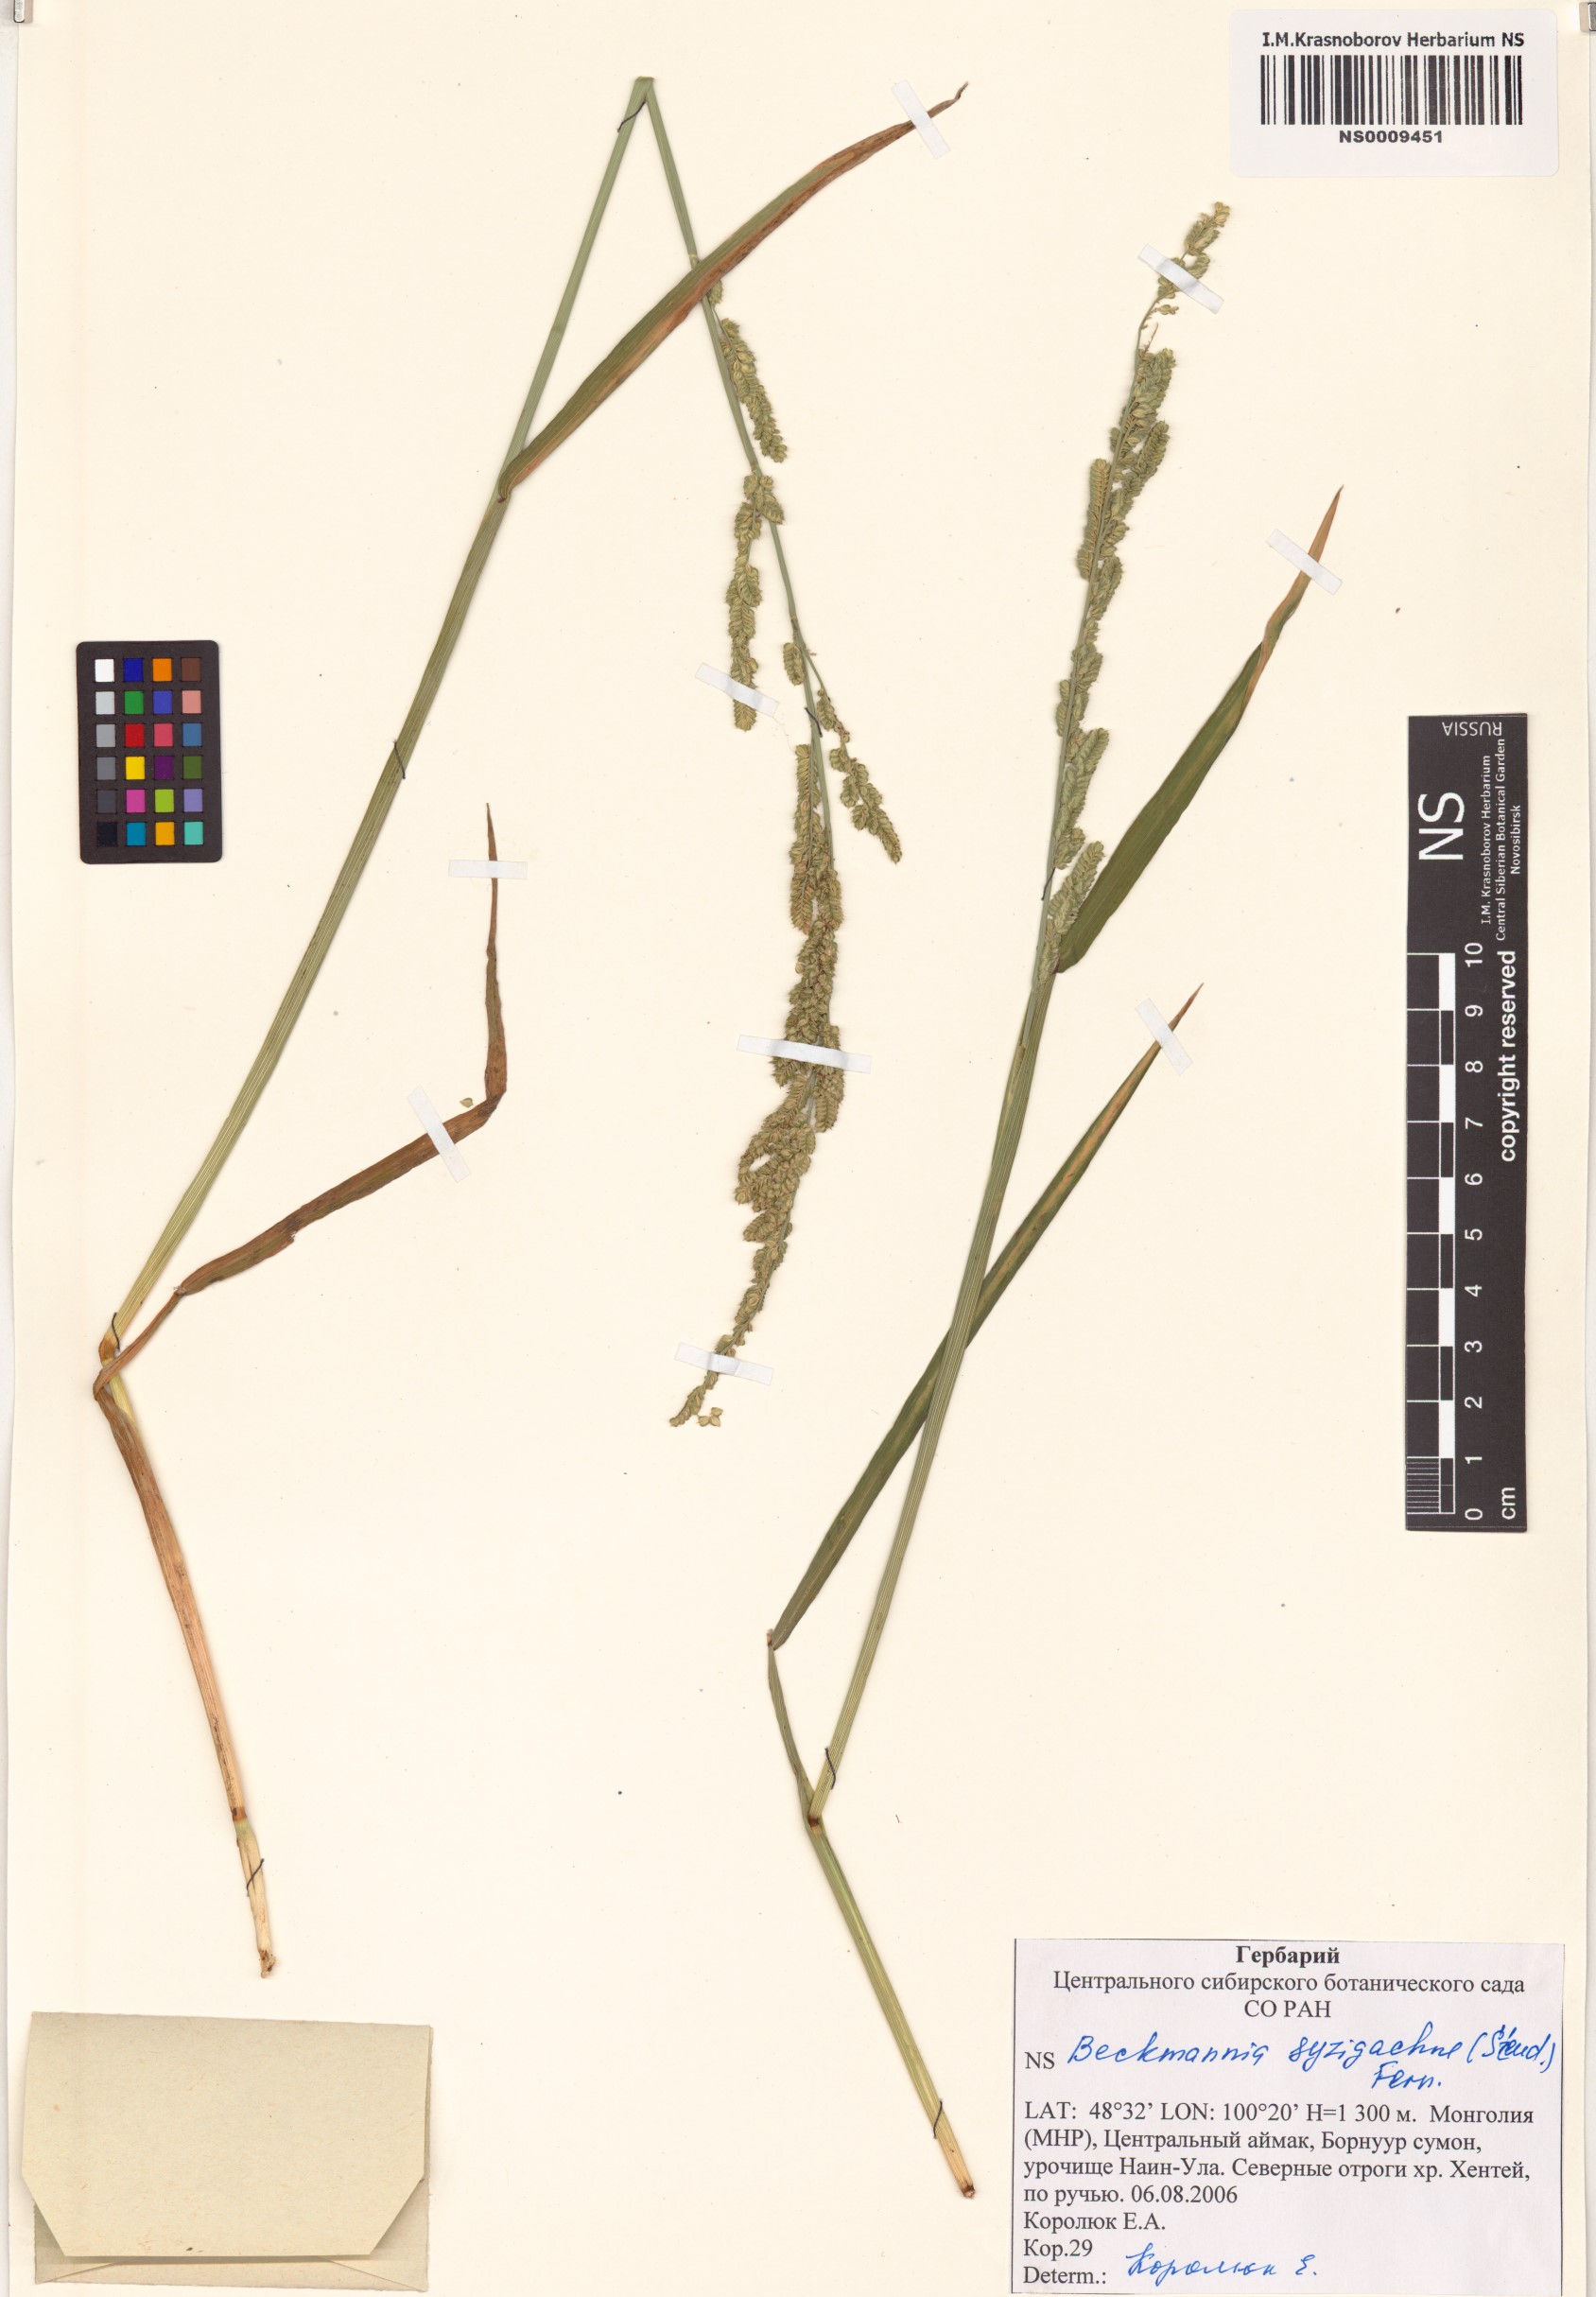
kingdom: Plantae
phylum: Tracheophyta
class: Liliopsida
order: Poales
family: Poaceae
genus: Beckmannia
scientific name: Beckmannia syzigachne
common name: American slough-grass
